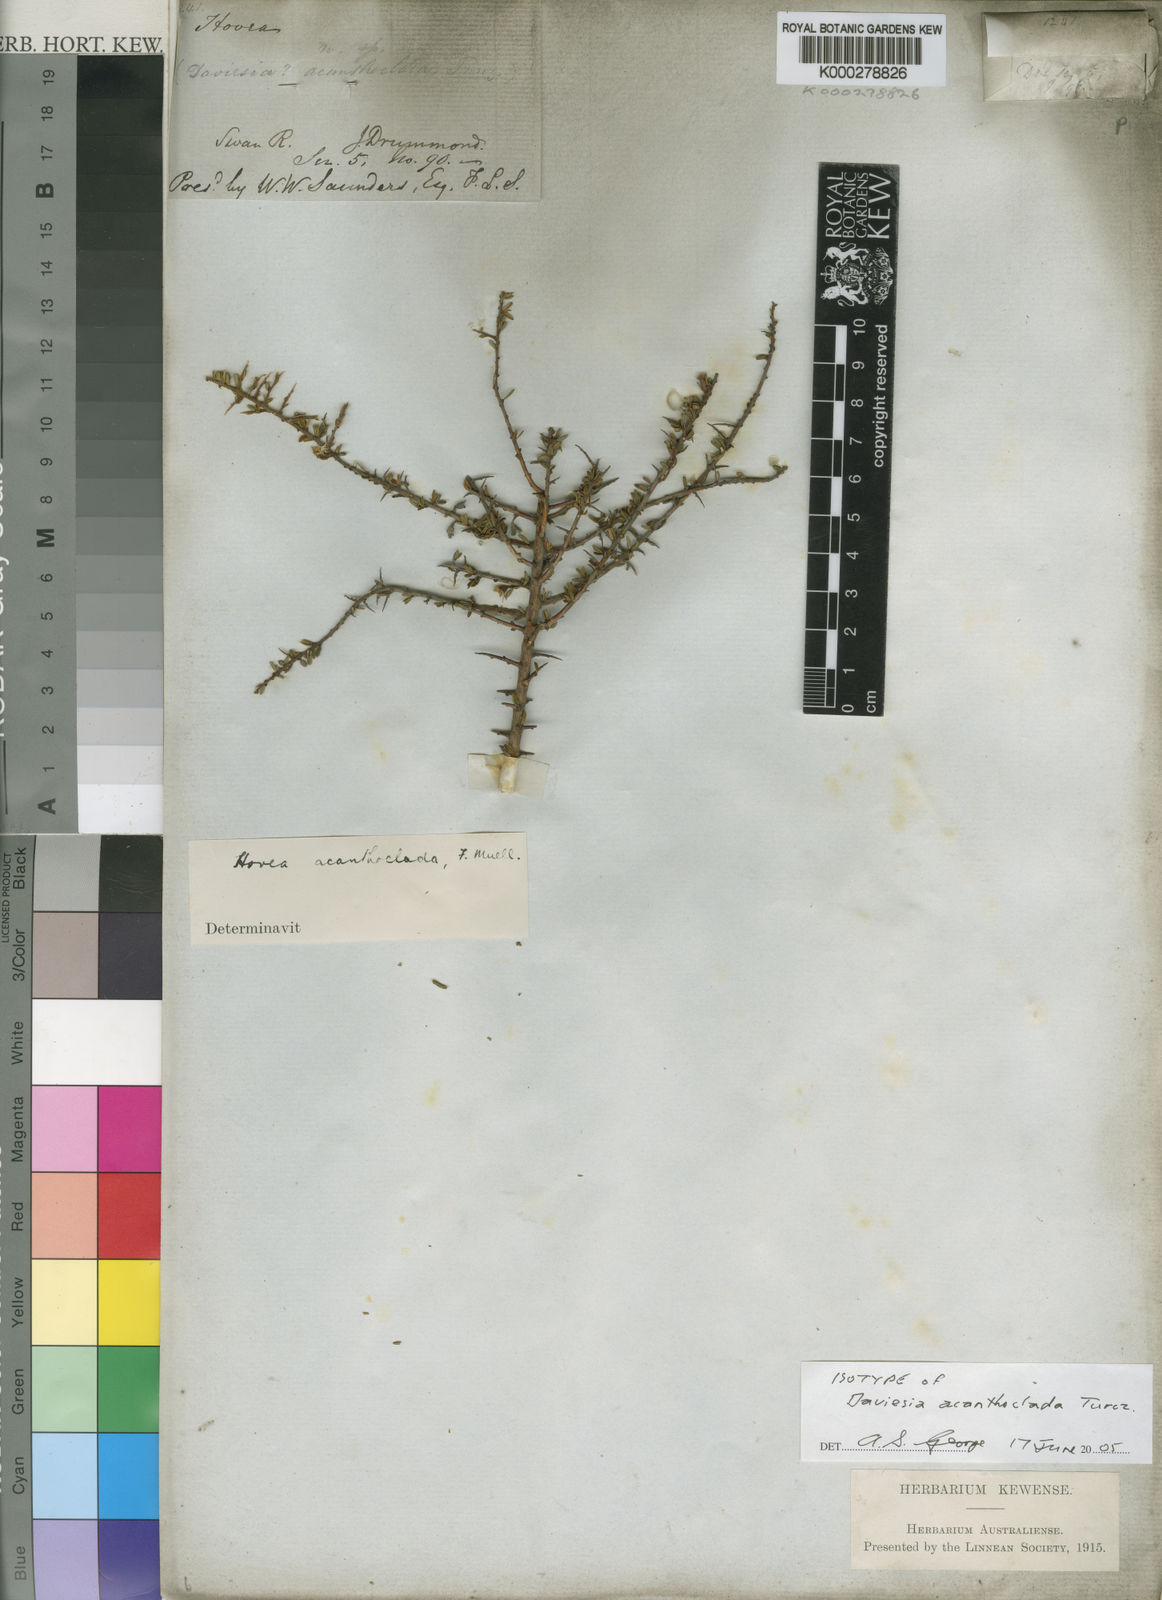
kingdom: Plantae
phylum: Tracheophyta
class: Magnoliopsida
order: Fabales
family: Fabaceae
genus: Hovea
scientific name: Hovea acanthoclada
